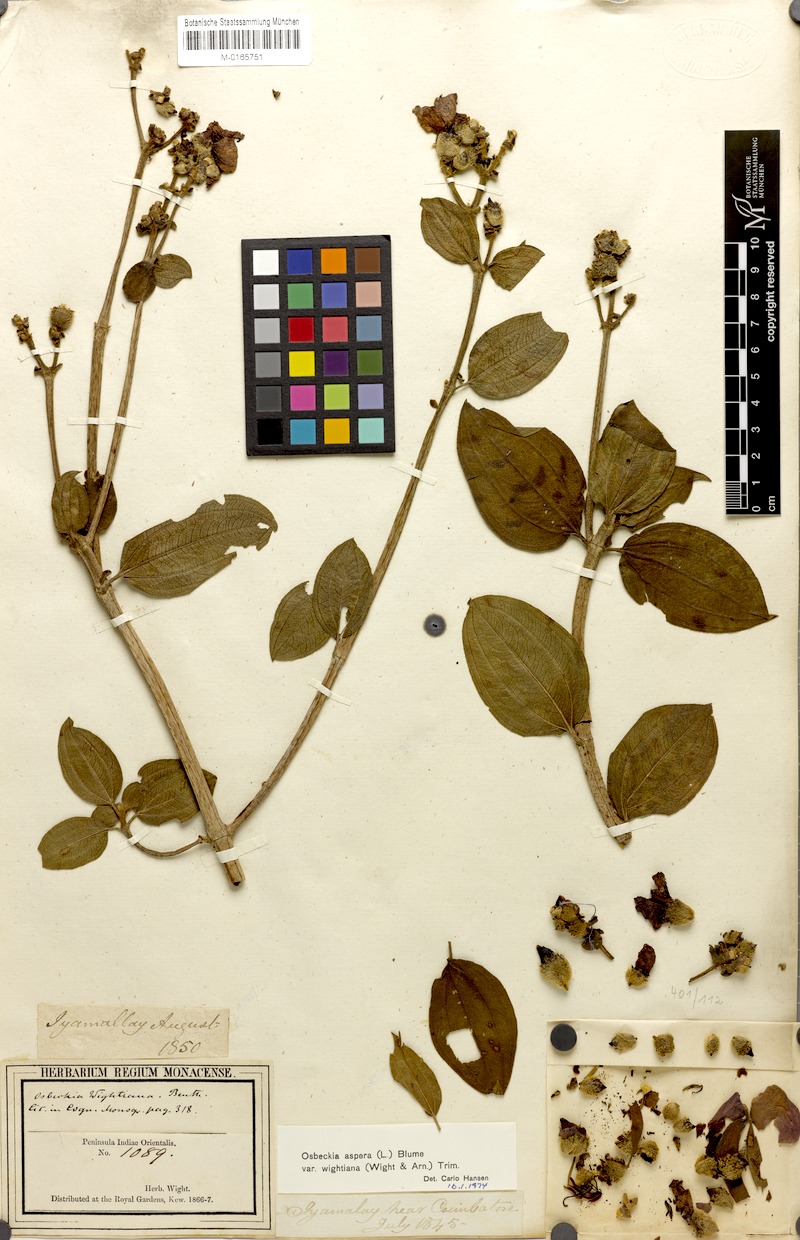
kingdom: Plantae
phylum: Tracheophyta
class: Magnoliopsida
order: Myrtales
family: Melastomataceae
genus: Osbeckia
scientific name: Osbeckia
